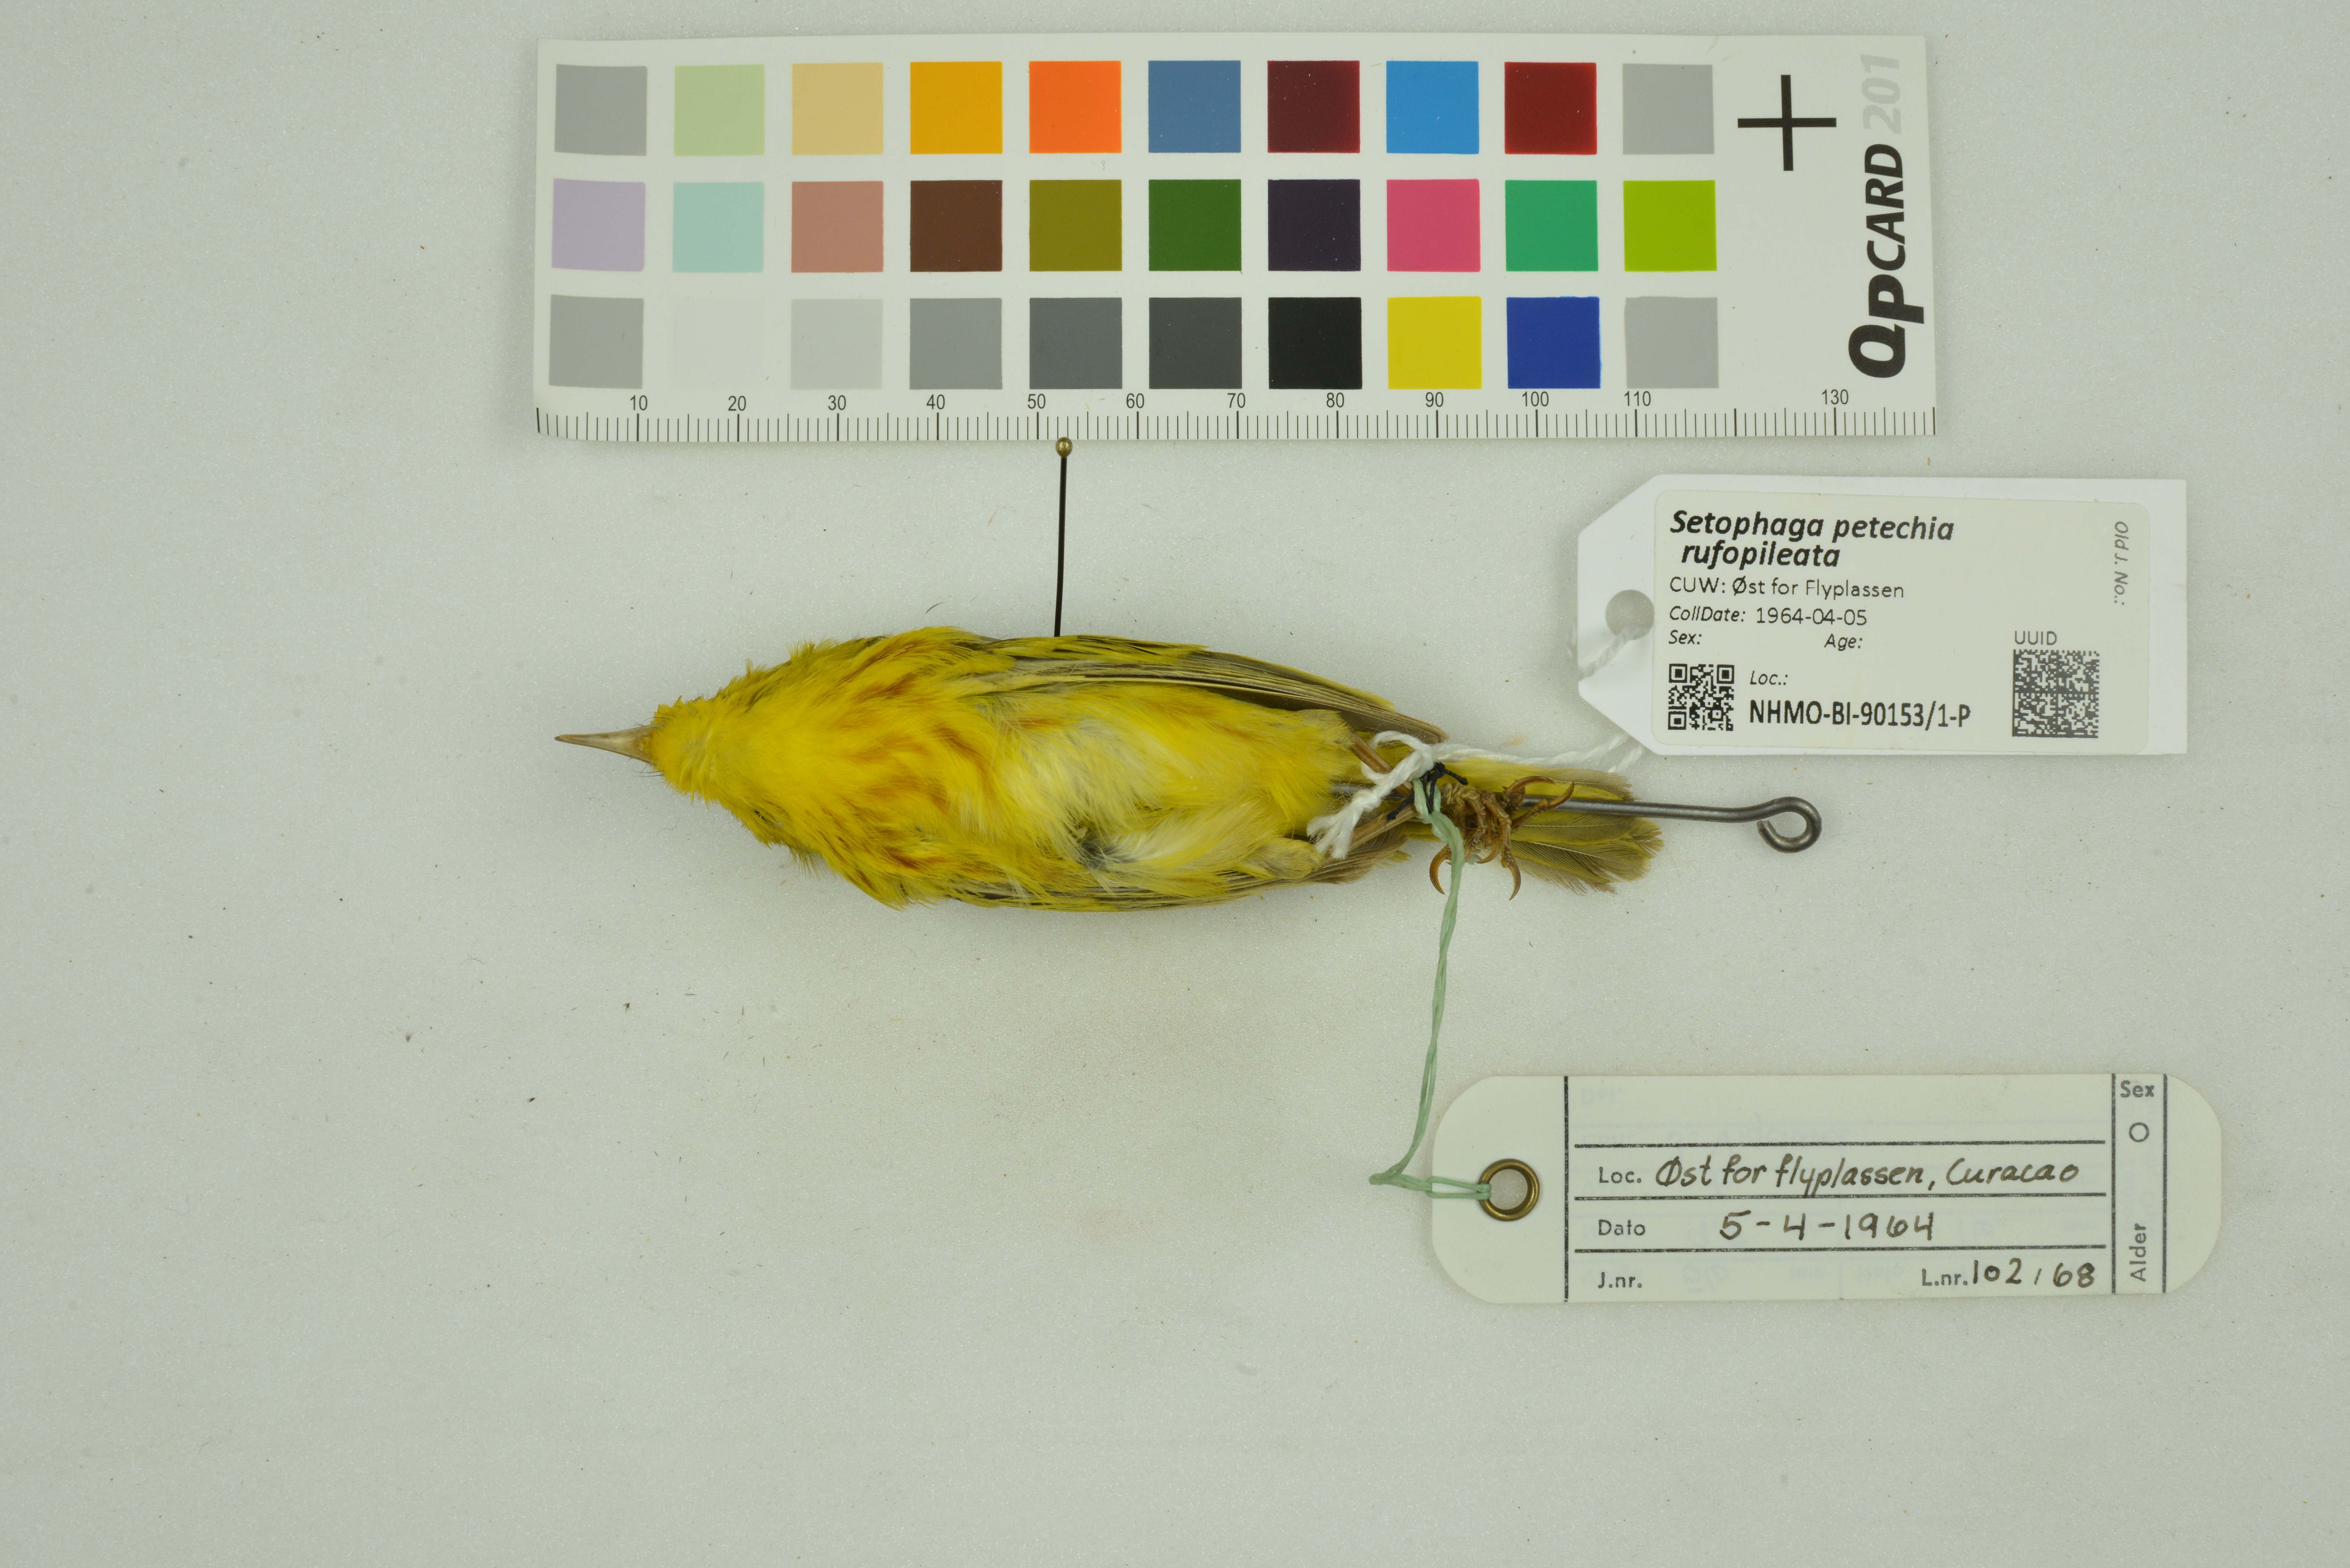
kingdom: Animalia
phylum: Chordata
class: Aves
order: Passeriformes
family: Parulidae
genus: Setophaga
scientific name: Setophaga petechia
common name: Yellow warbler
